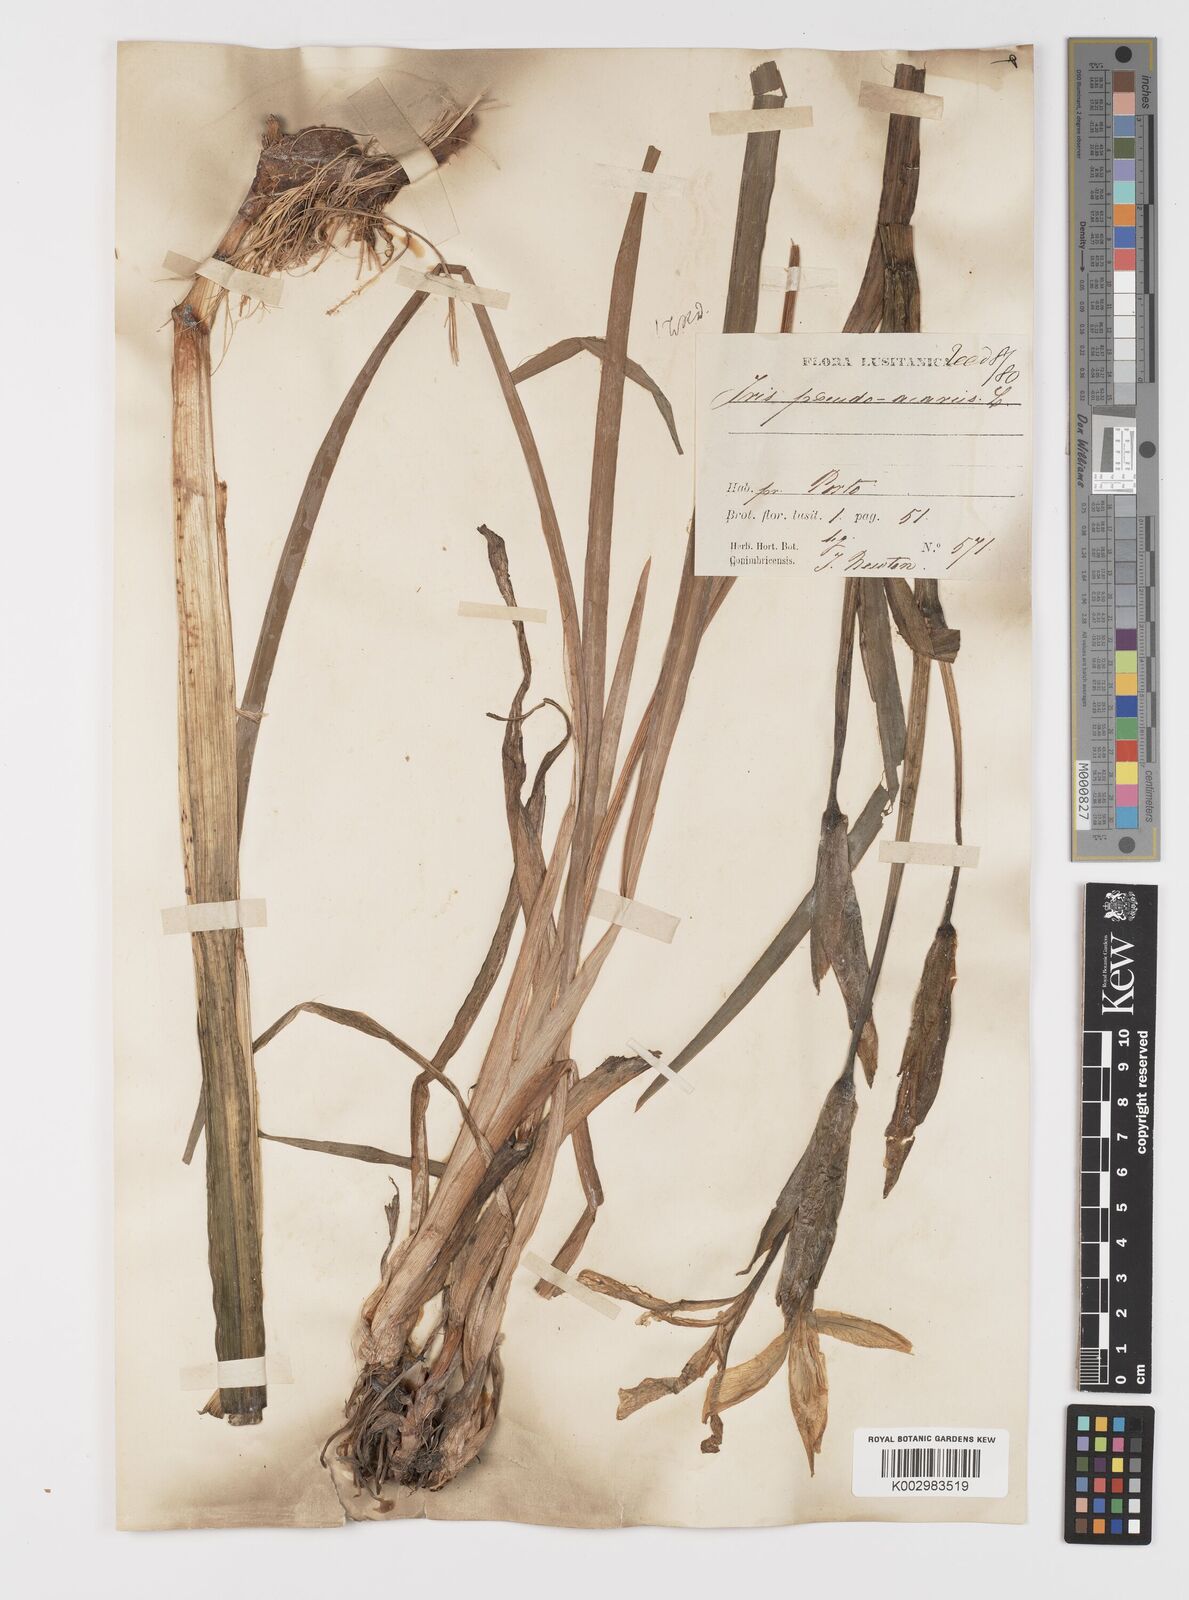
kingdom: Plantae
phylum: Tracheophyta
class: Liliopsida
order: Asparagales
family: Iridaceae
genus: Iris
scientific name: Iris pseudacorus
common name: Yellow flag
